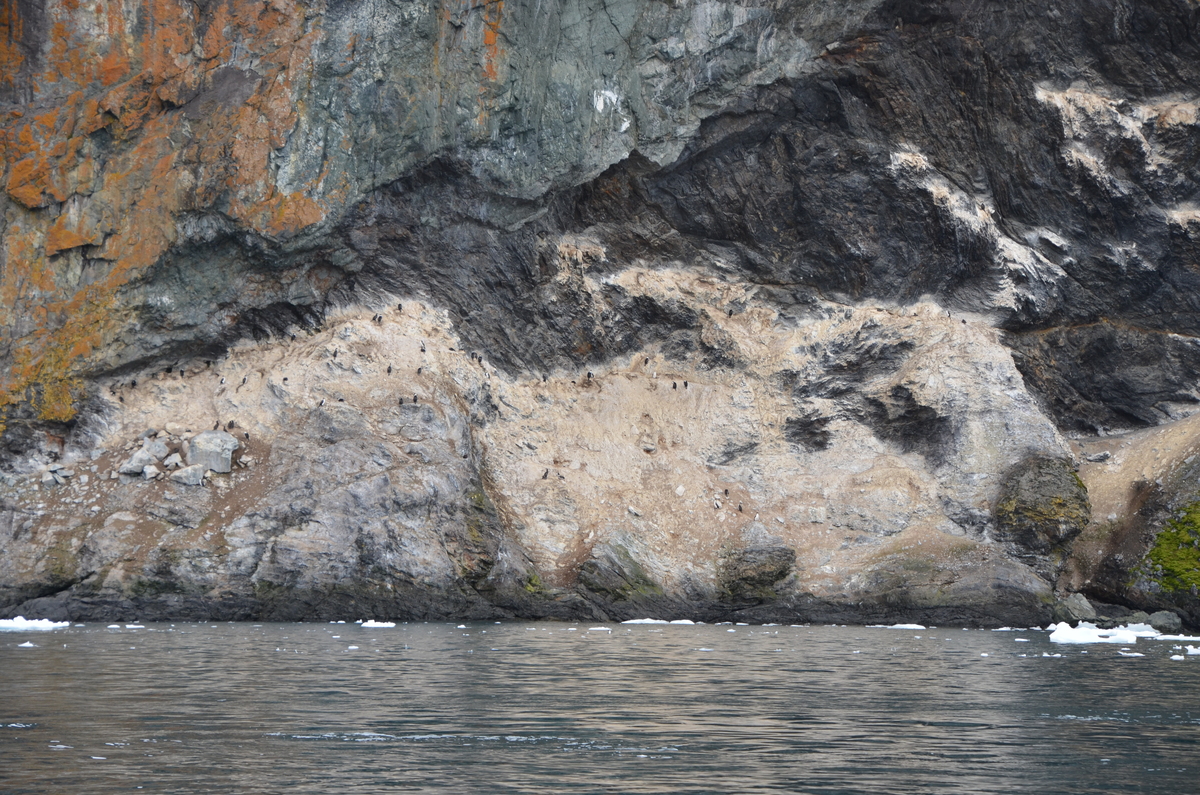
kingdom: Animalia
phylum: Chordata
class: Aves
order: Suliformes
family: Phalacrocoracidae
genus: Leucocarbo
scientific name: Leucocarbo atriceps
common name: Antarctic shag
